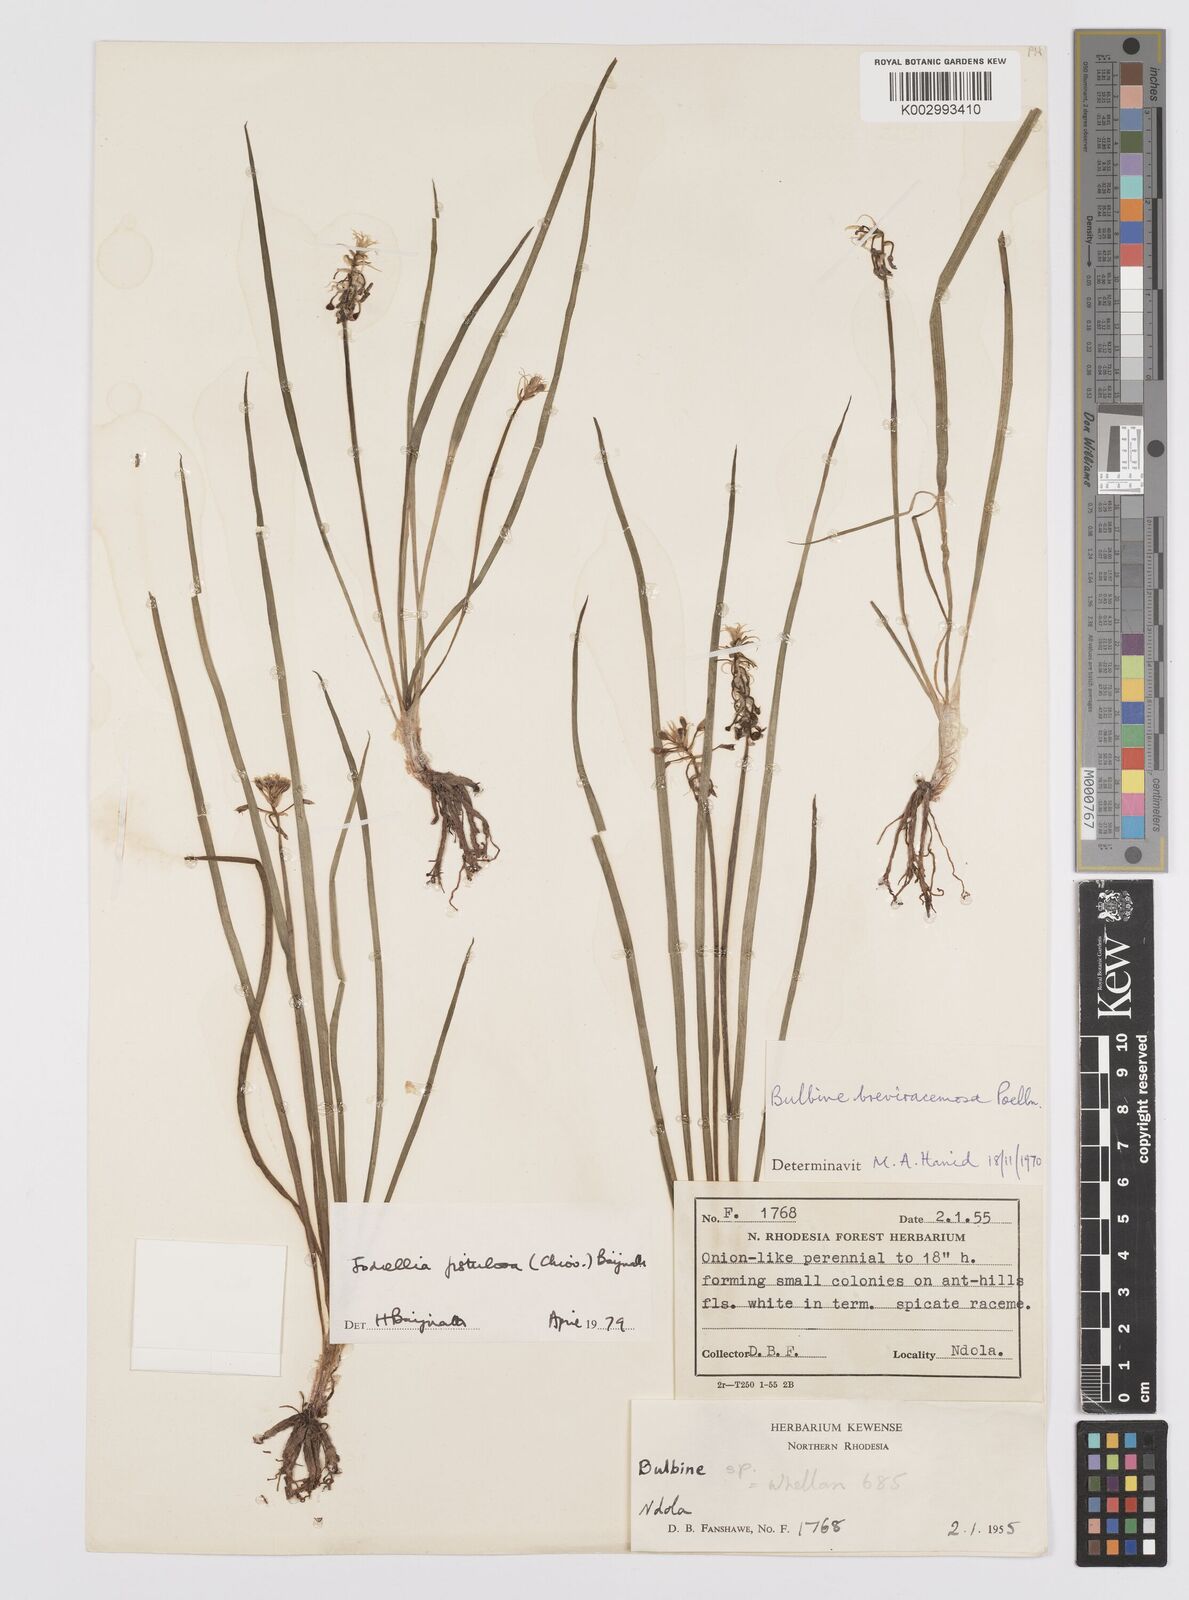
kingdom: Plantae
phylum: Tracheophyta
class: Liliopsida
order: Asparagales
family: Asphodelaceae
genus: Bulbine
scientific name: Bulbine fistulosa
